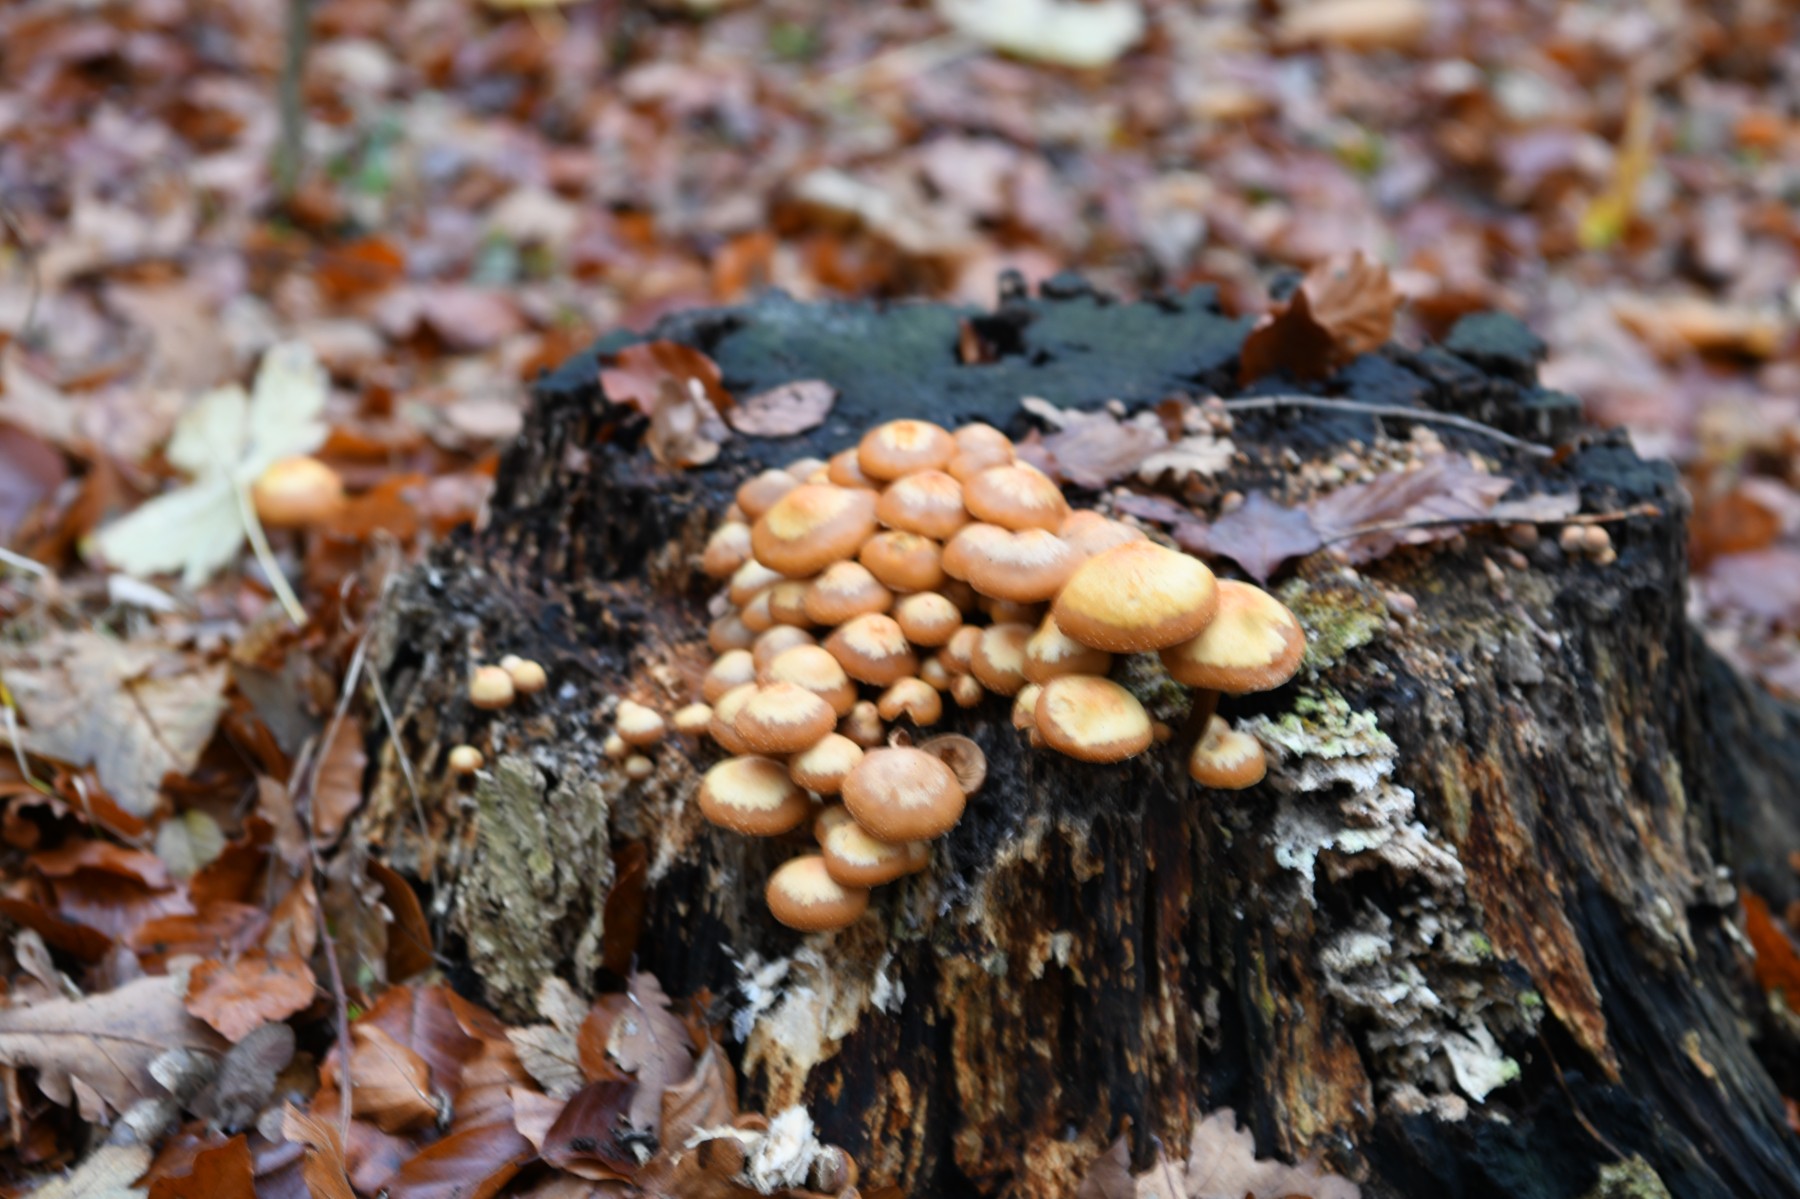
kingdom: Fungi
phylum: Basidiomycota
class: Agaricomycetes
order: Agaricales
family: Strophariaceae
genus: Kuehneromyces
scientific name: Kuehneromyces mutabilis
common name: foranderlig skælhat
